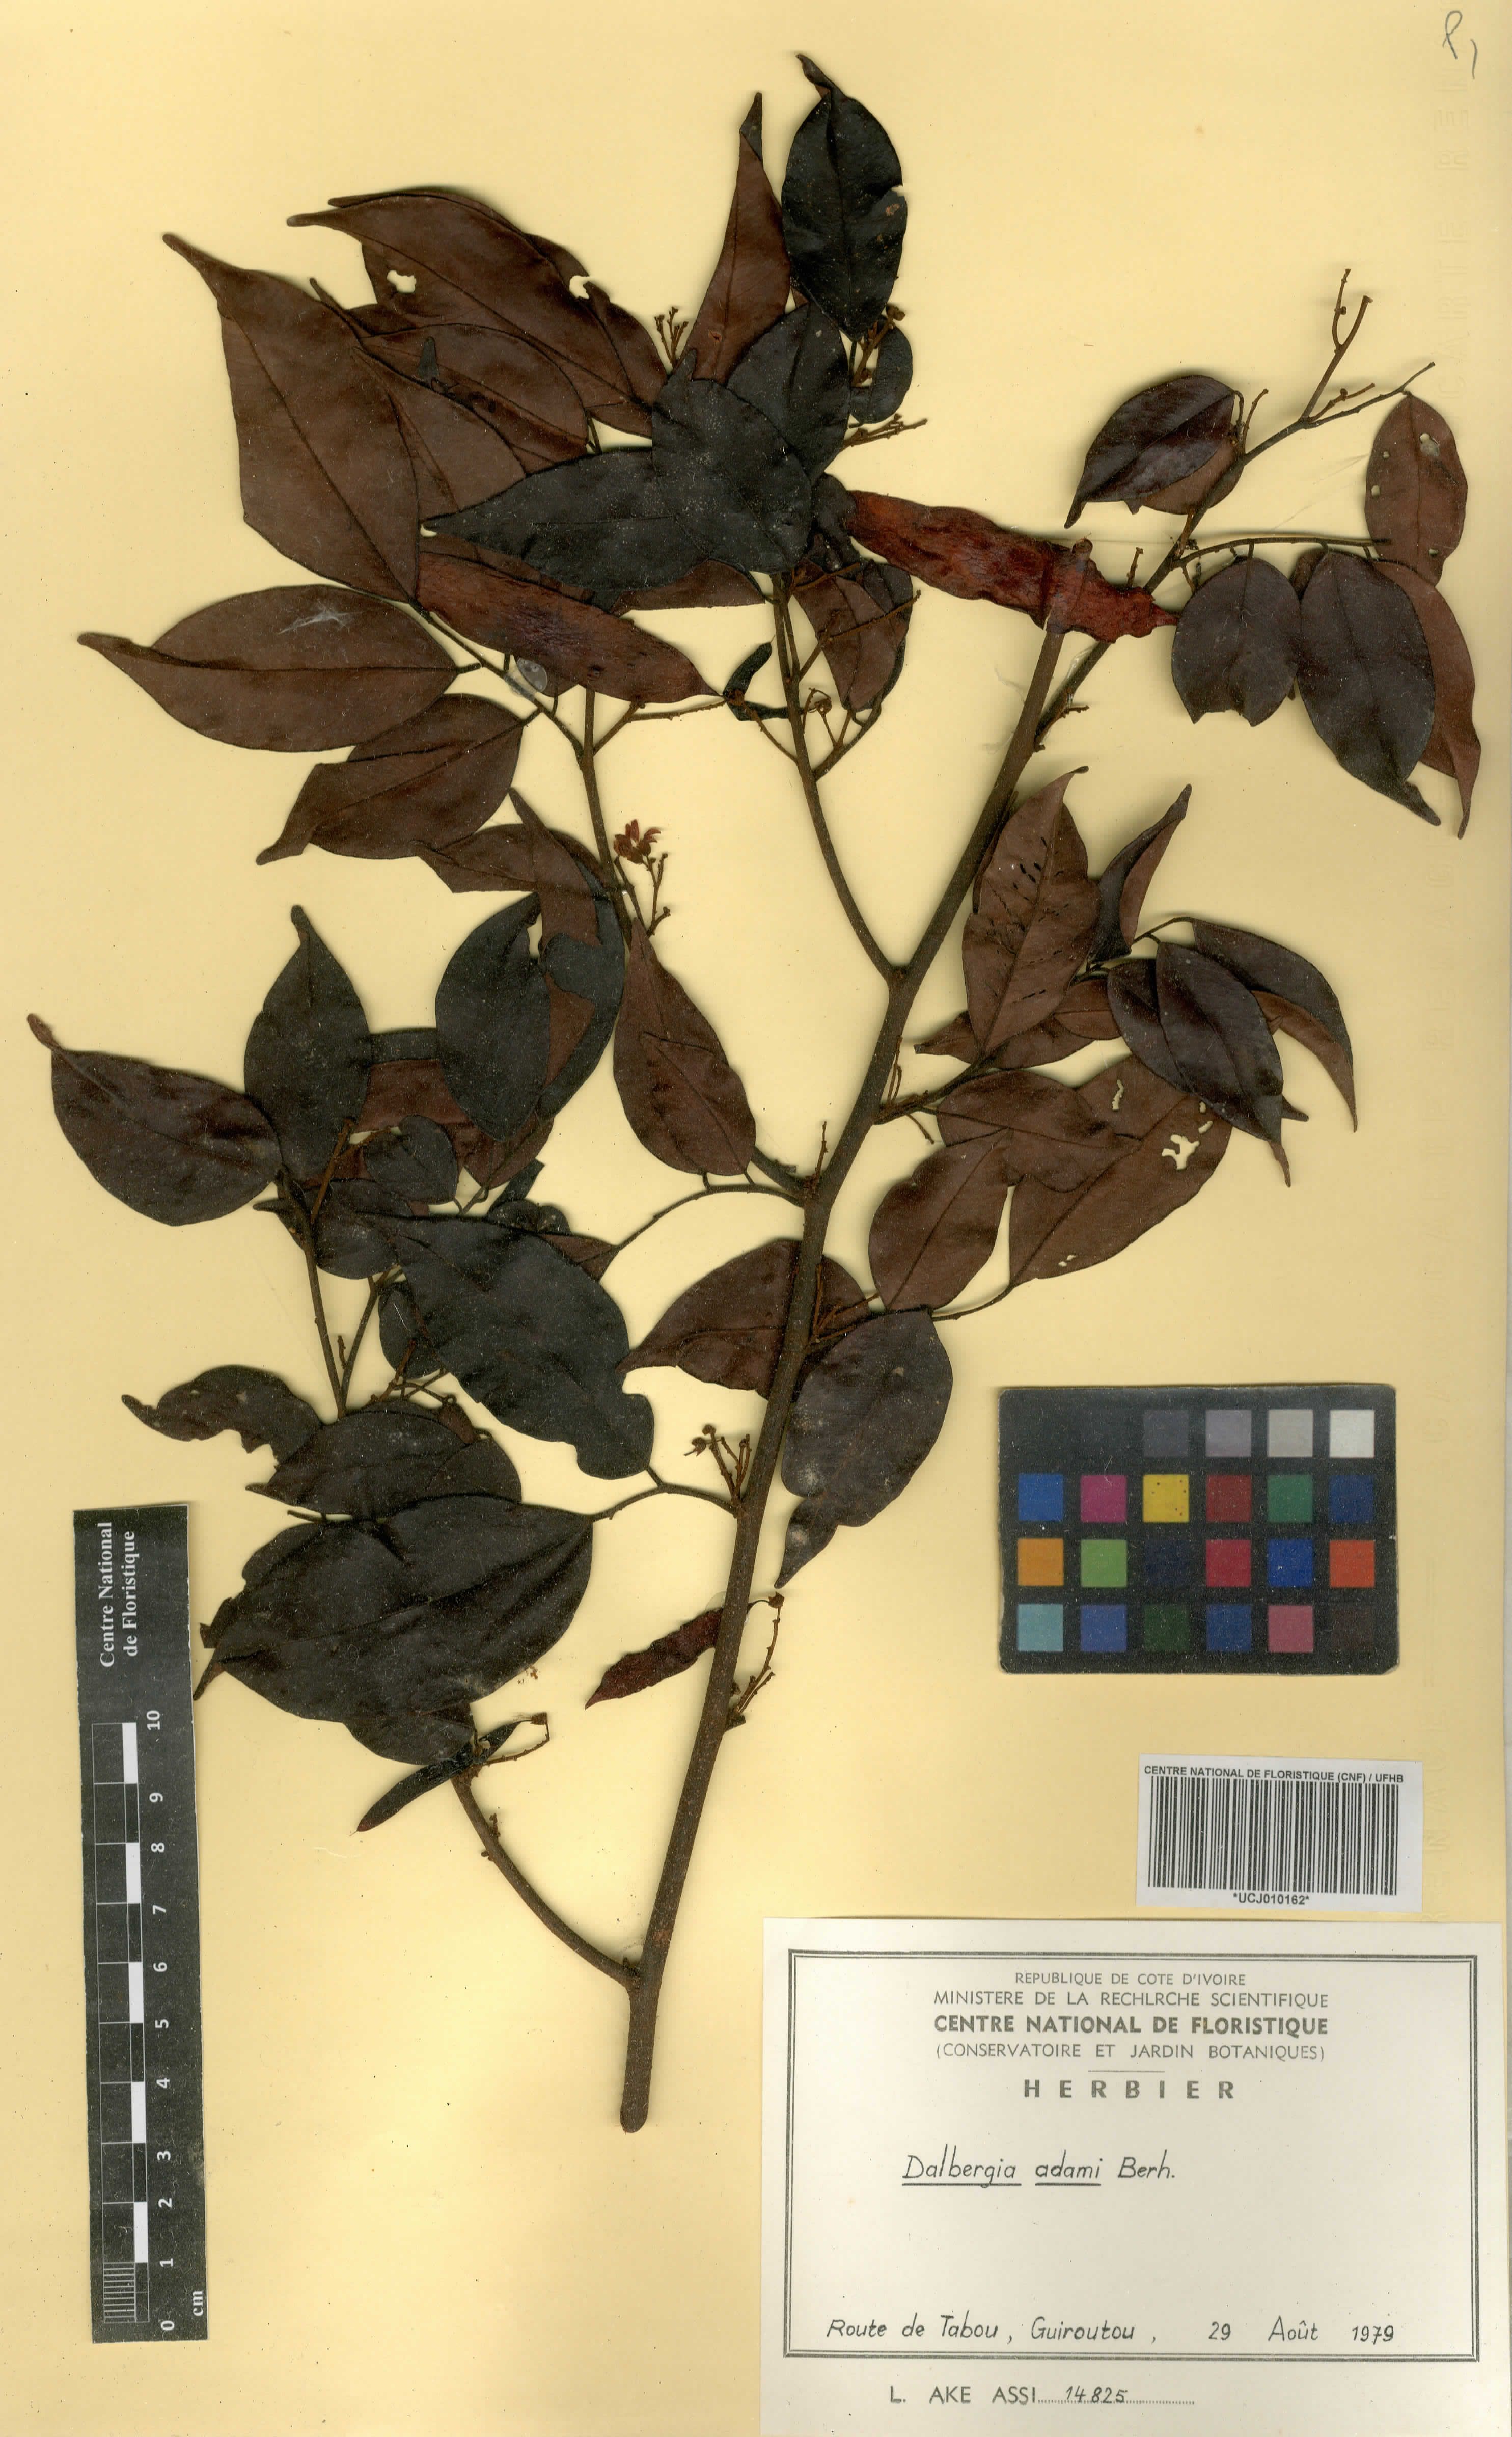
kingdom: Plantae
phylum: Tracheophyta
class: Magnoliopsida
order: Fabales
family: Fabaceae
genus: Dalbergia
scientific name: Dalbergia adamii
